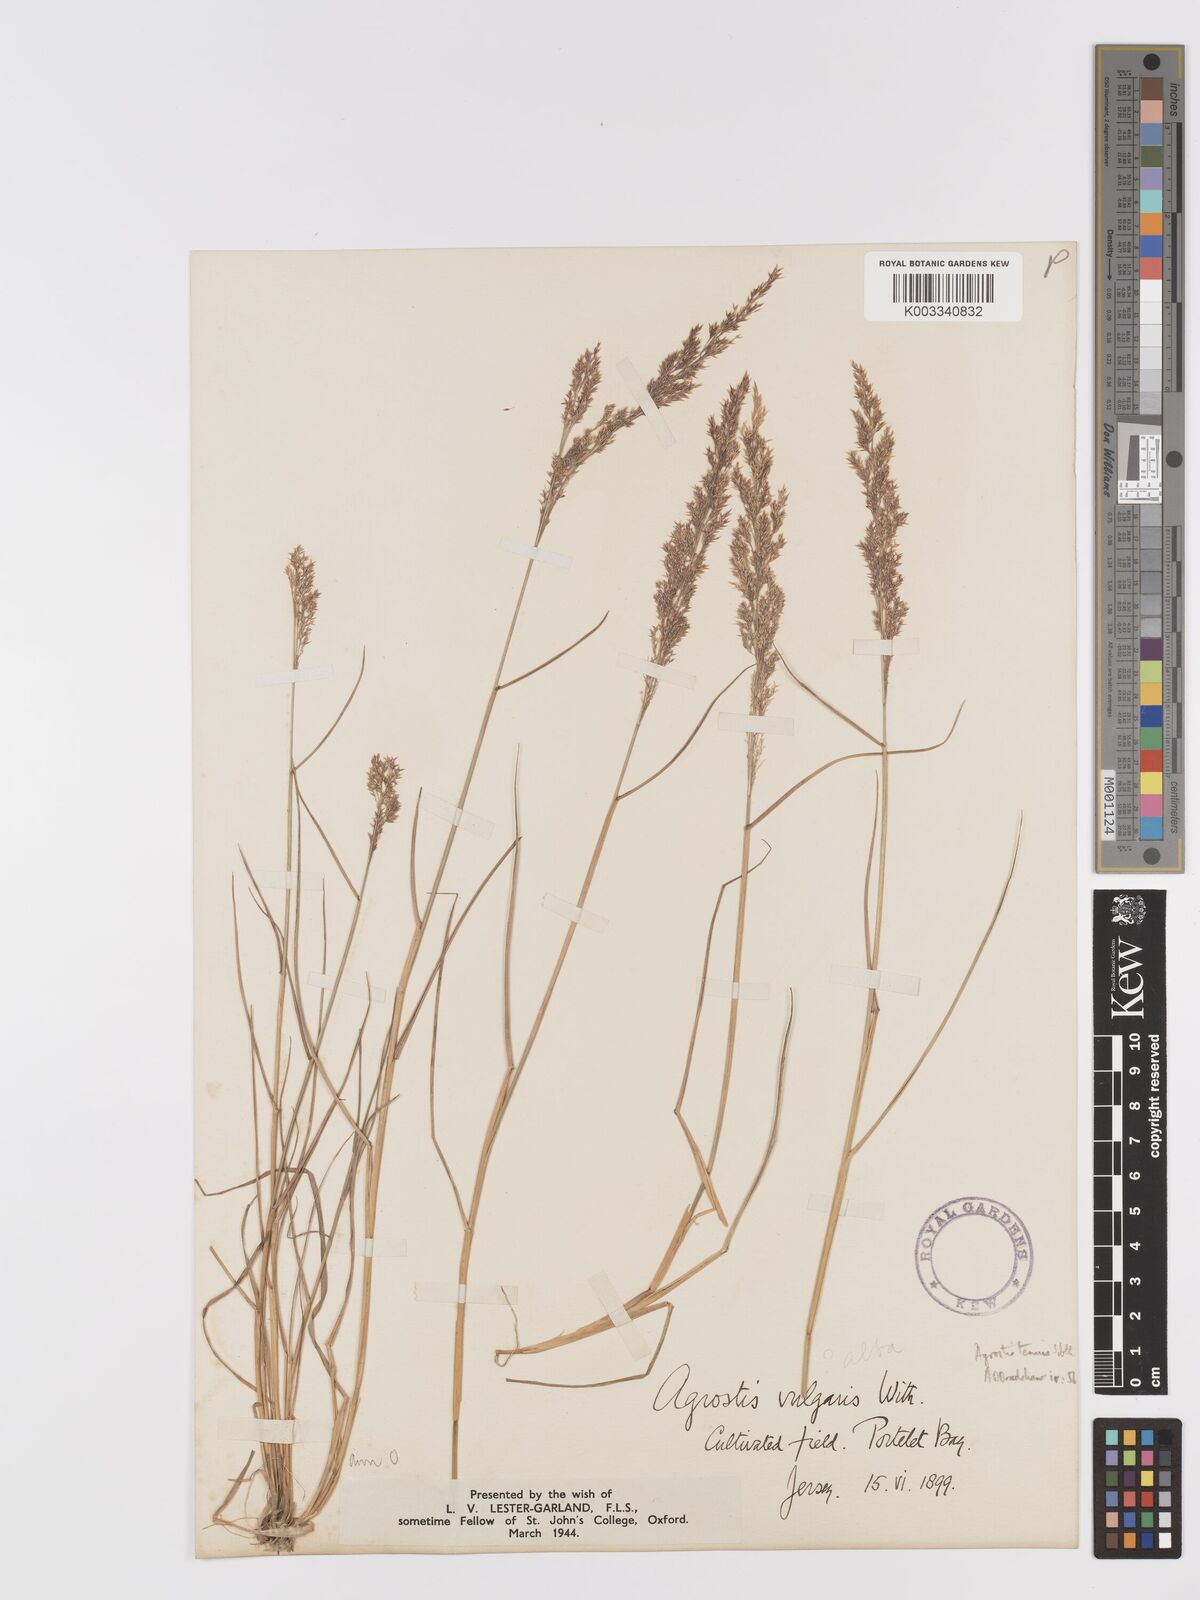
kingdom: Plantae
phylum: Tracheophyta
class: Liliopsida
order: Poales
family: Poaceae
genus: Agrostis
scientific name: Agrostis capillaris
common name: Colonial bentgrass
